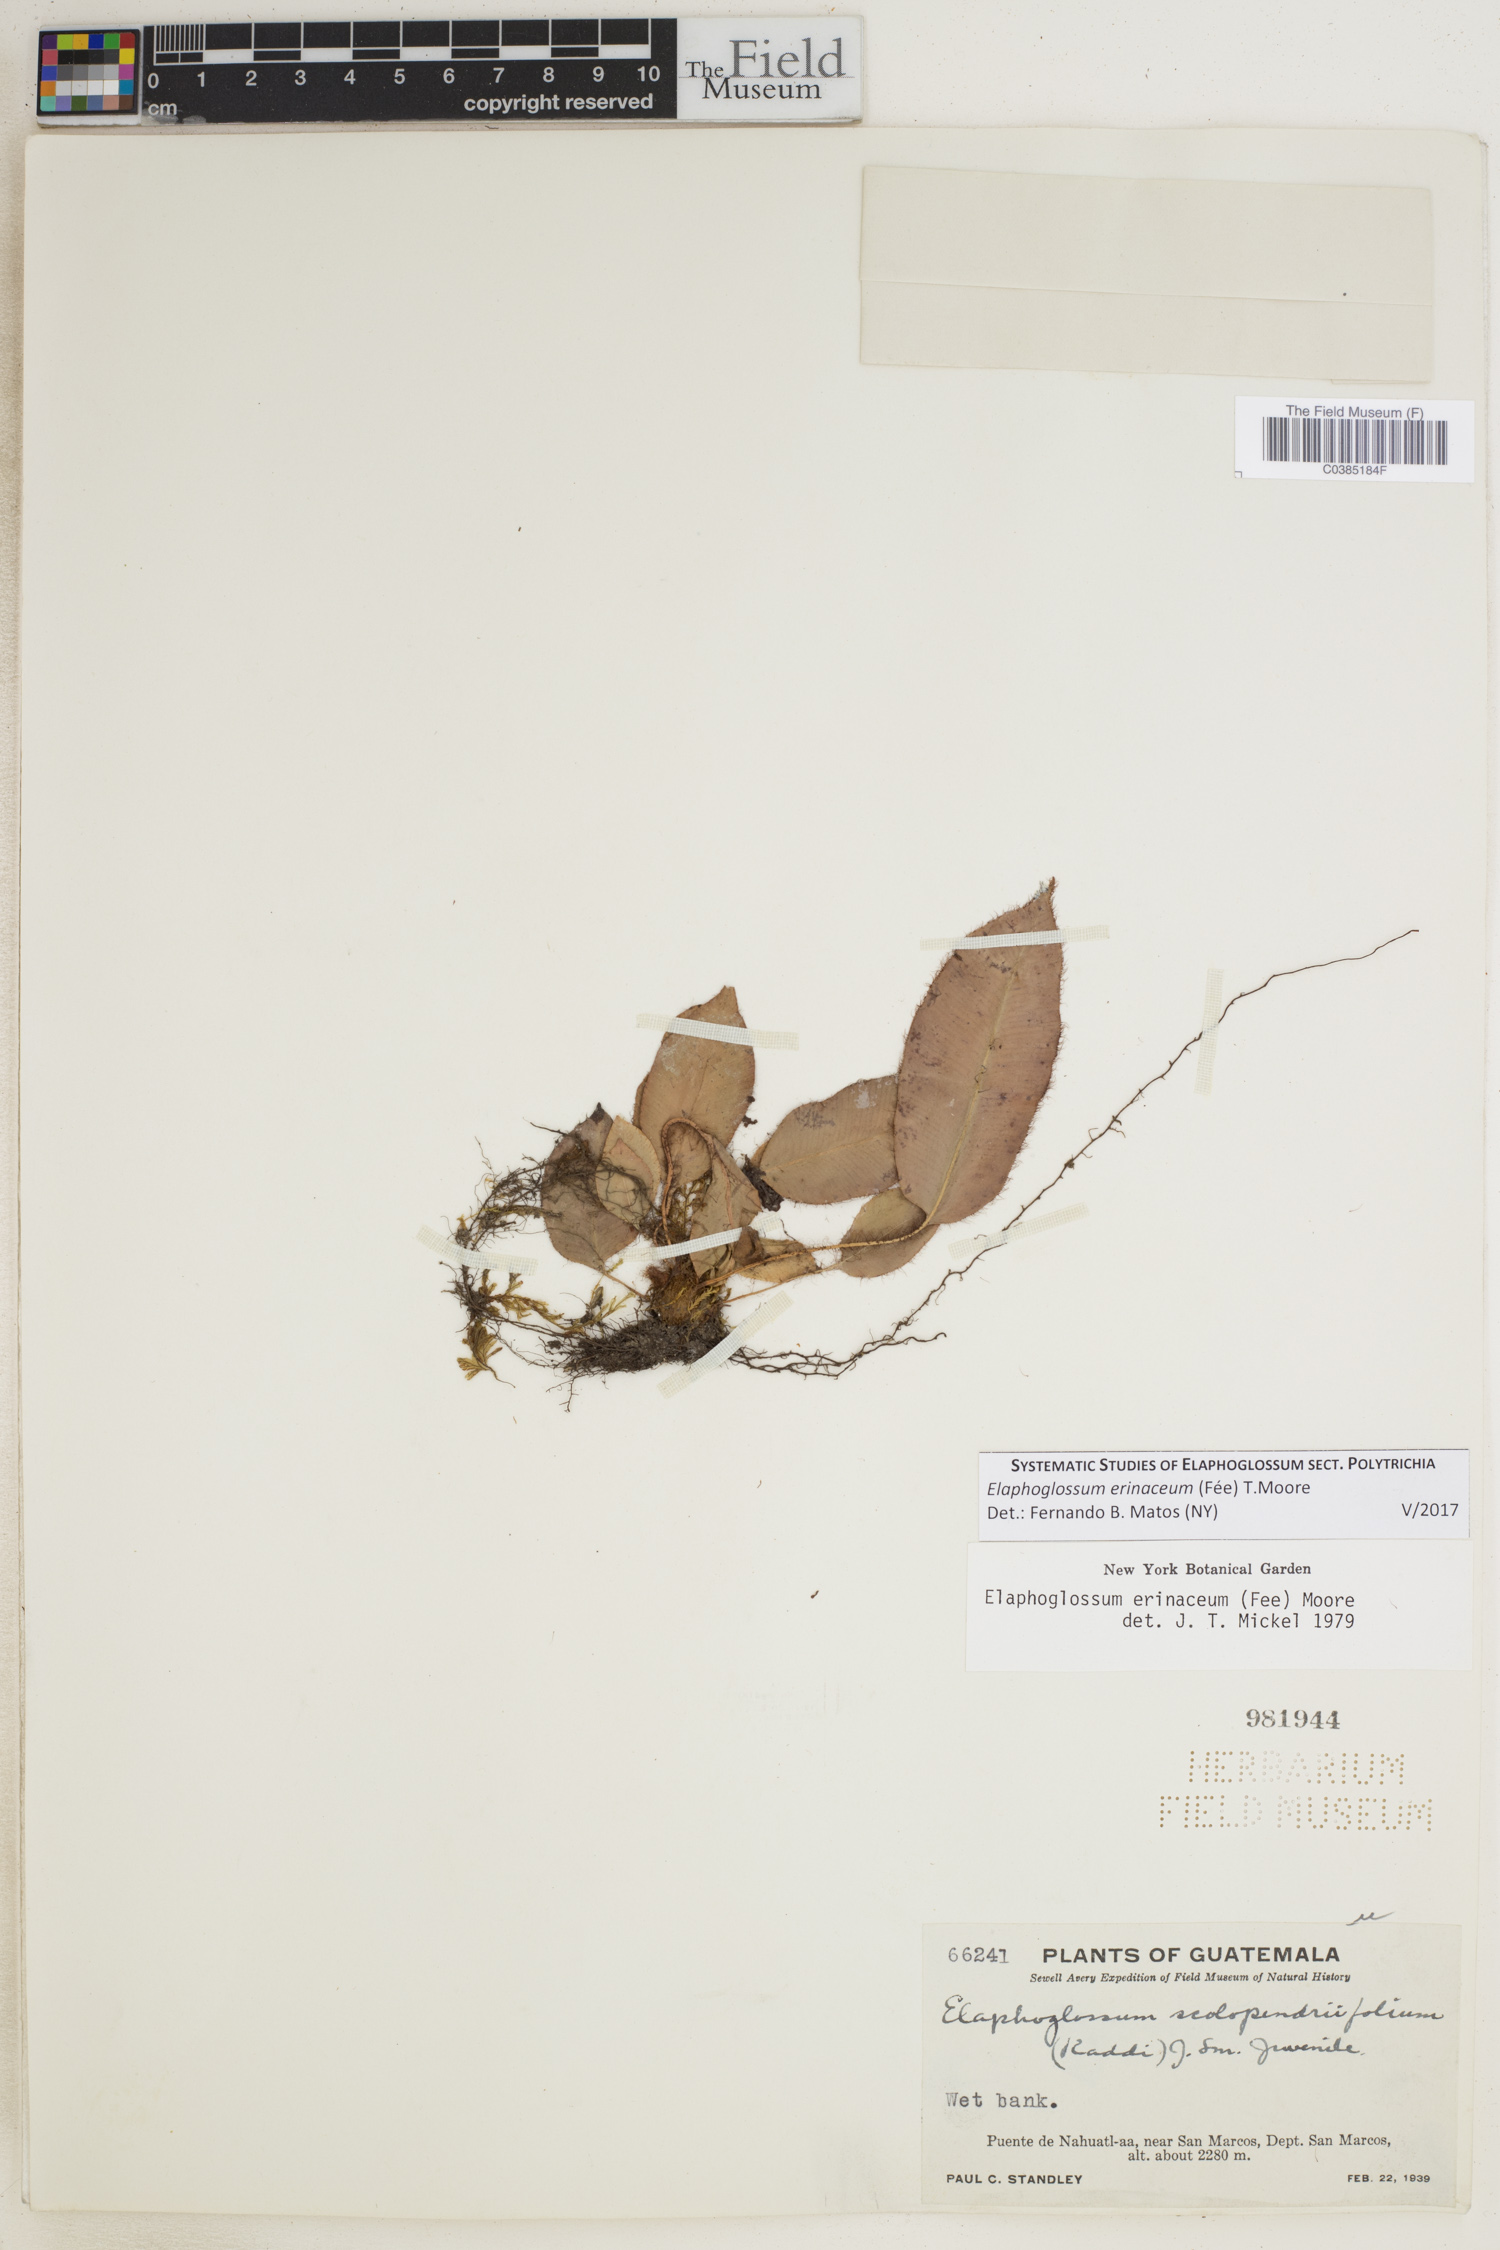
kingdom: Plantae
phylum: Tracheophyta
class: Polypodiopsida
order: Polypodiales
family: Dryopteridaceae
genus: Elaphoglossum
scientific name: Elaphoglossum erinaceum
